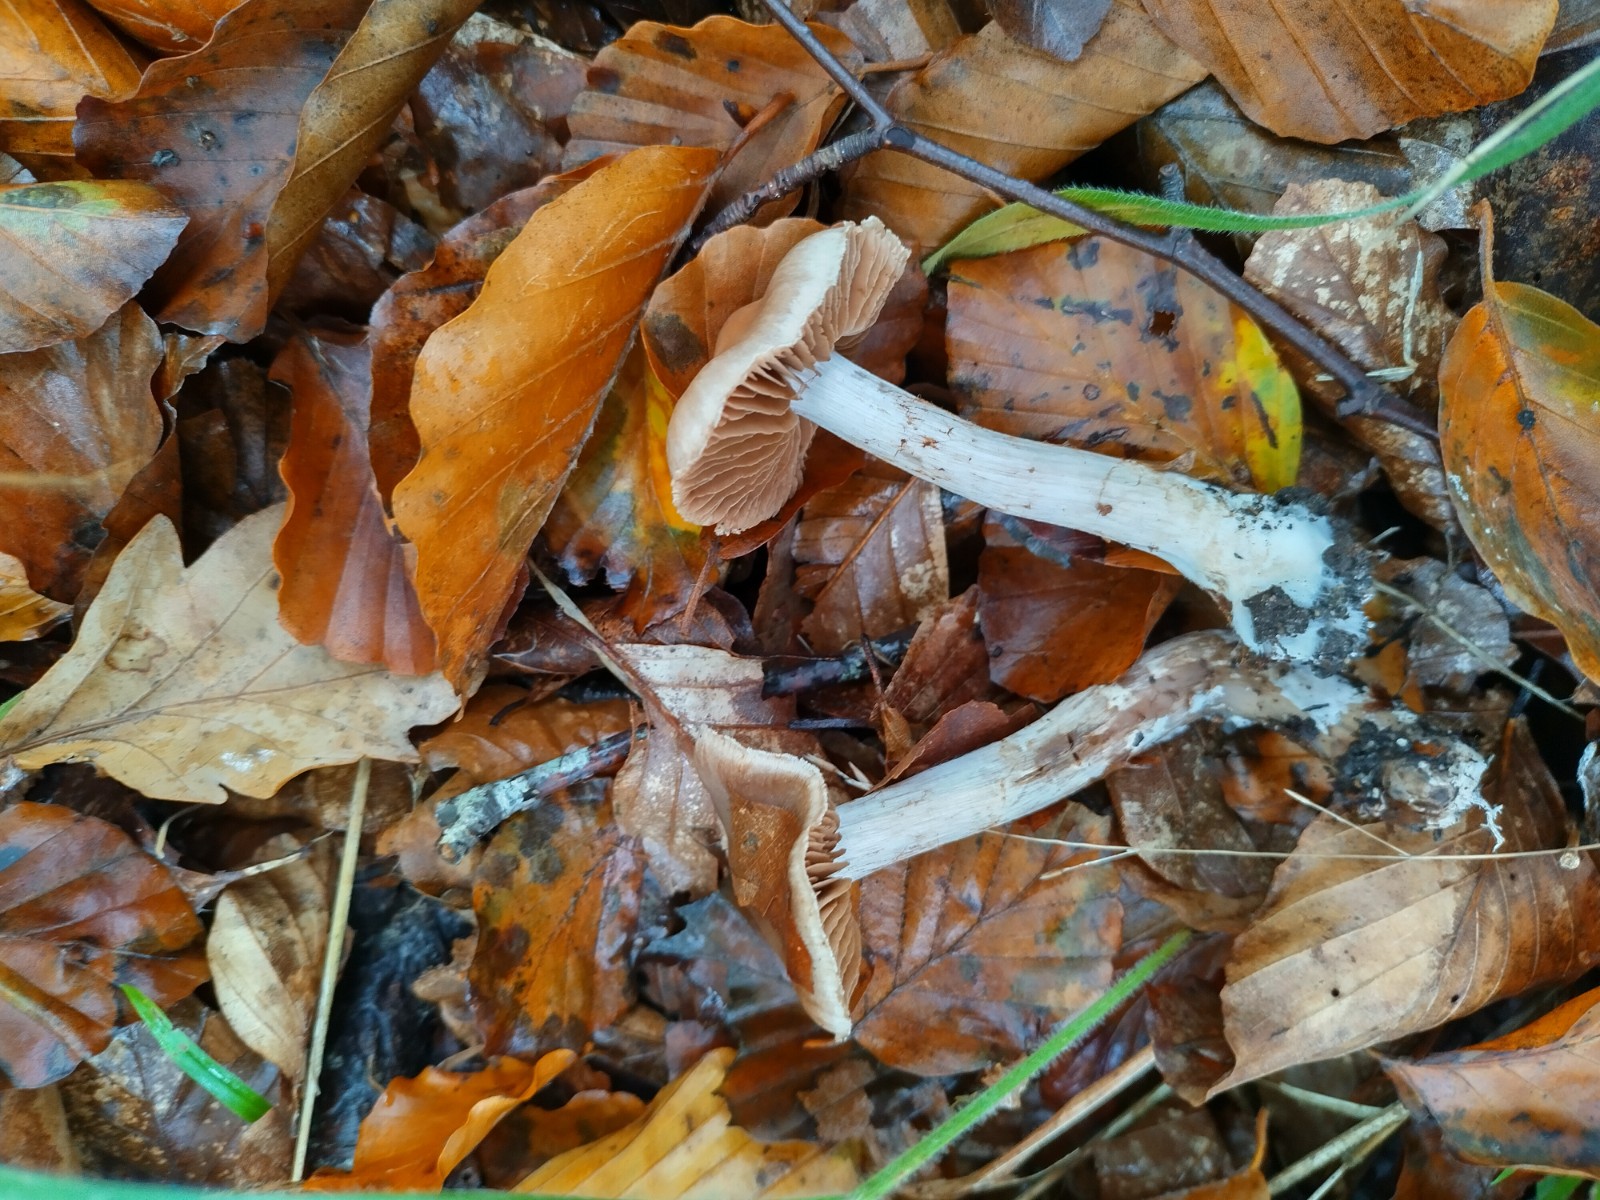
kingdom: Fungi
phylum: Basidiomycota
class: Agaricomycetes
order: Agaricales
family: Cortinariaceae
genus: Cortinarius
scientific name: Cortinarius
